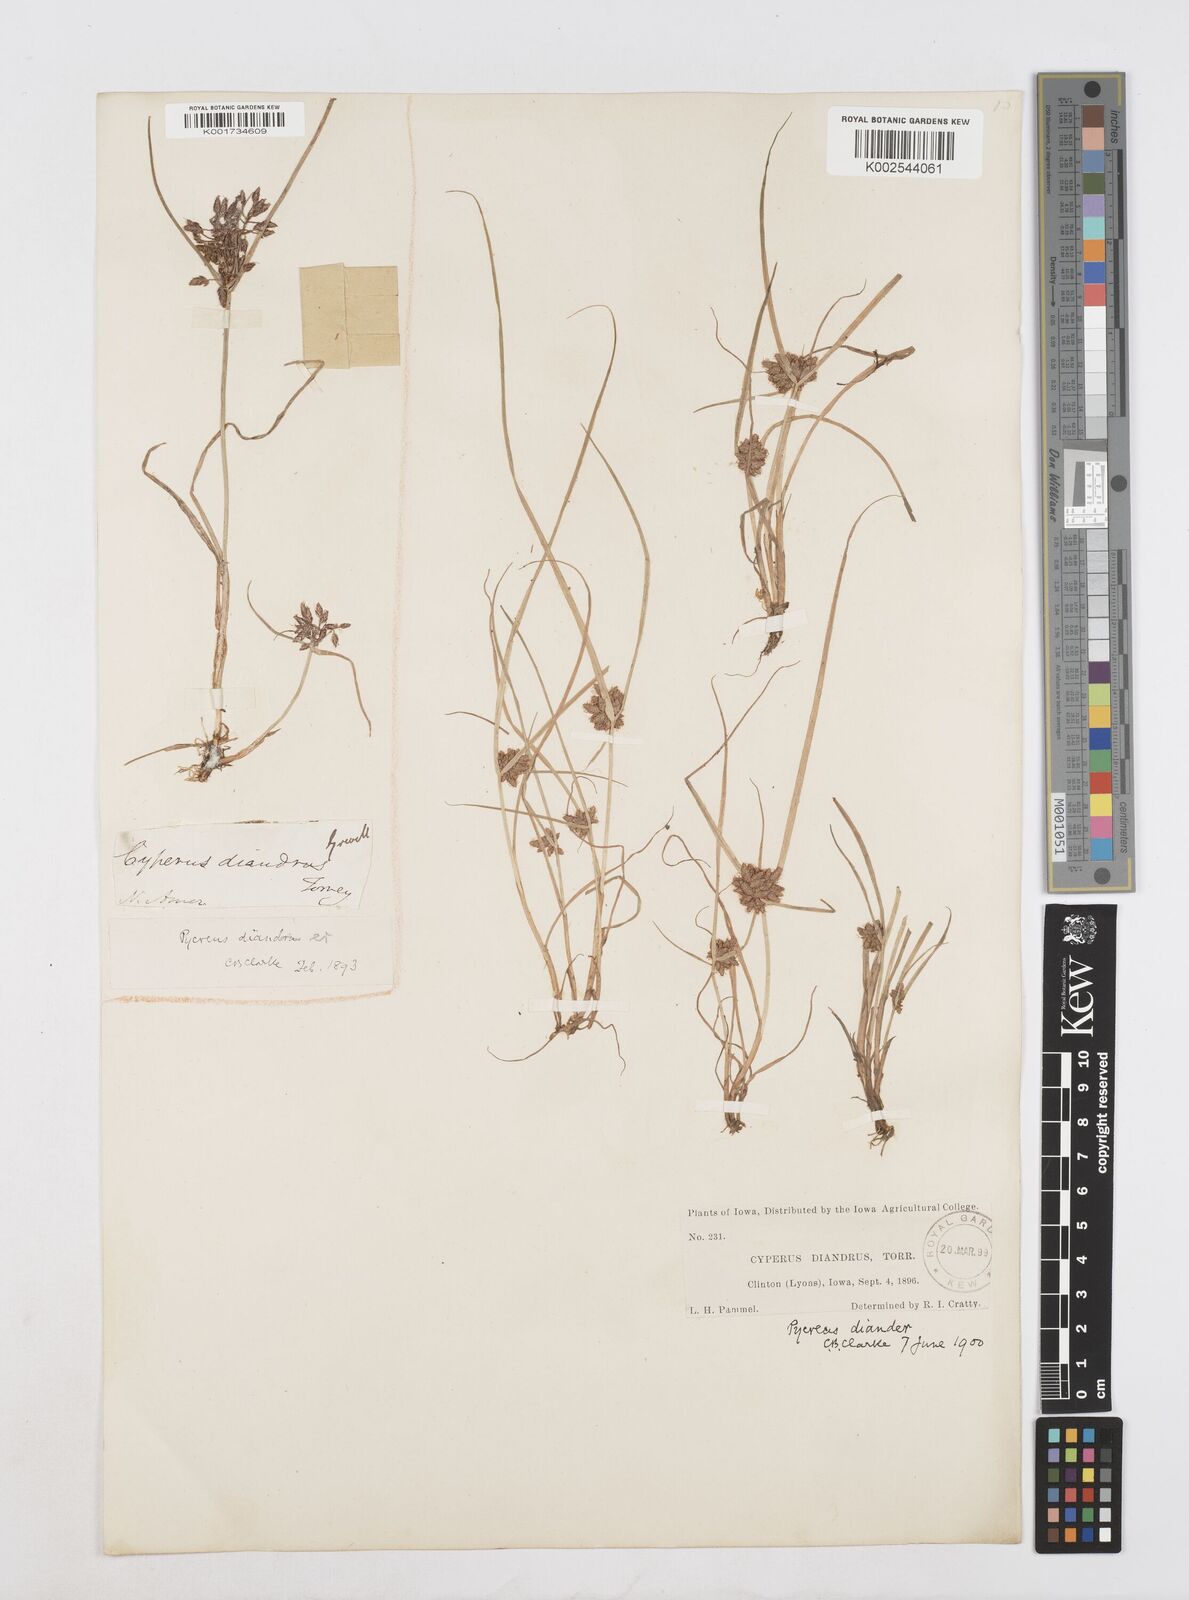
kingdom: Plantae
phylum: Tracheophyta
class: Liliopsida
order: Poales
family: Cyperaceae
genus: Cyperus
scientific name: Cyperus diandrus
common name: Low cyperus
